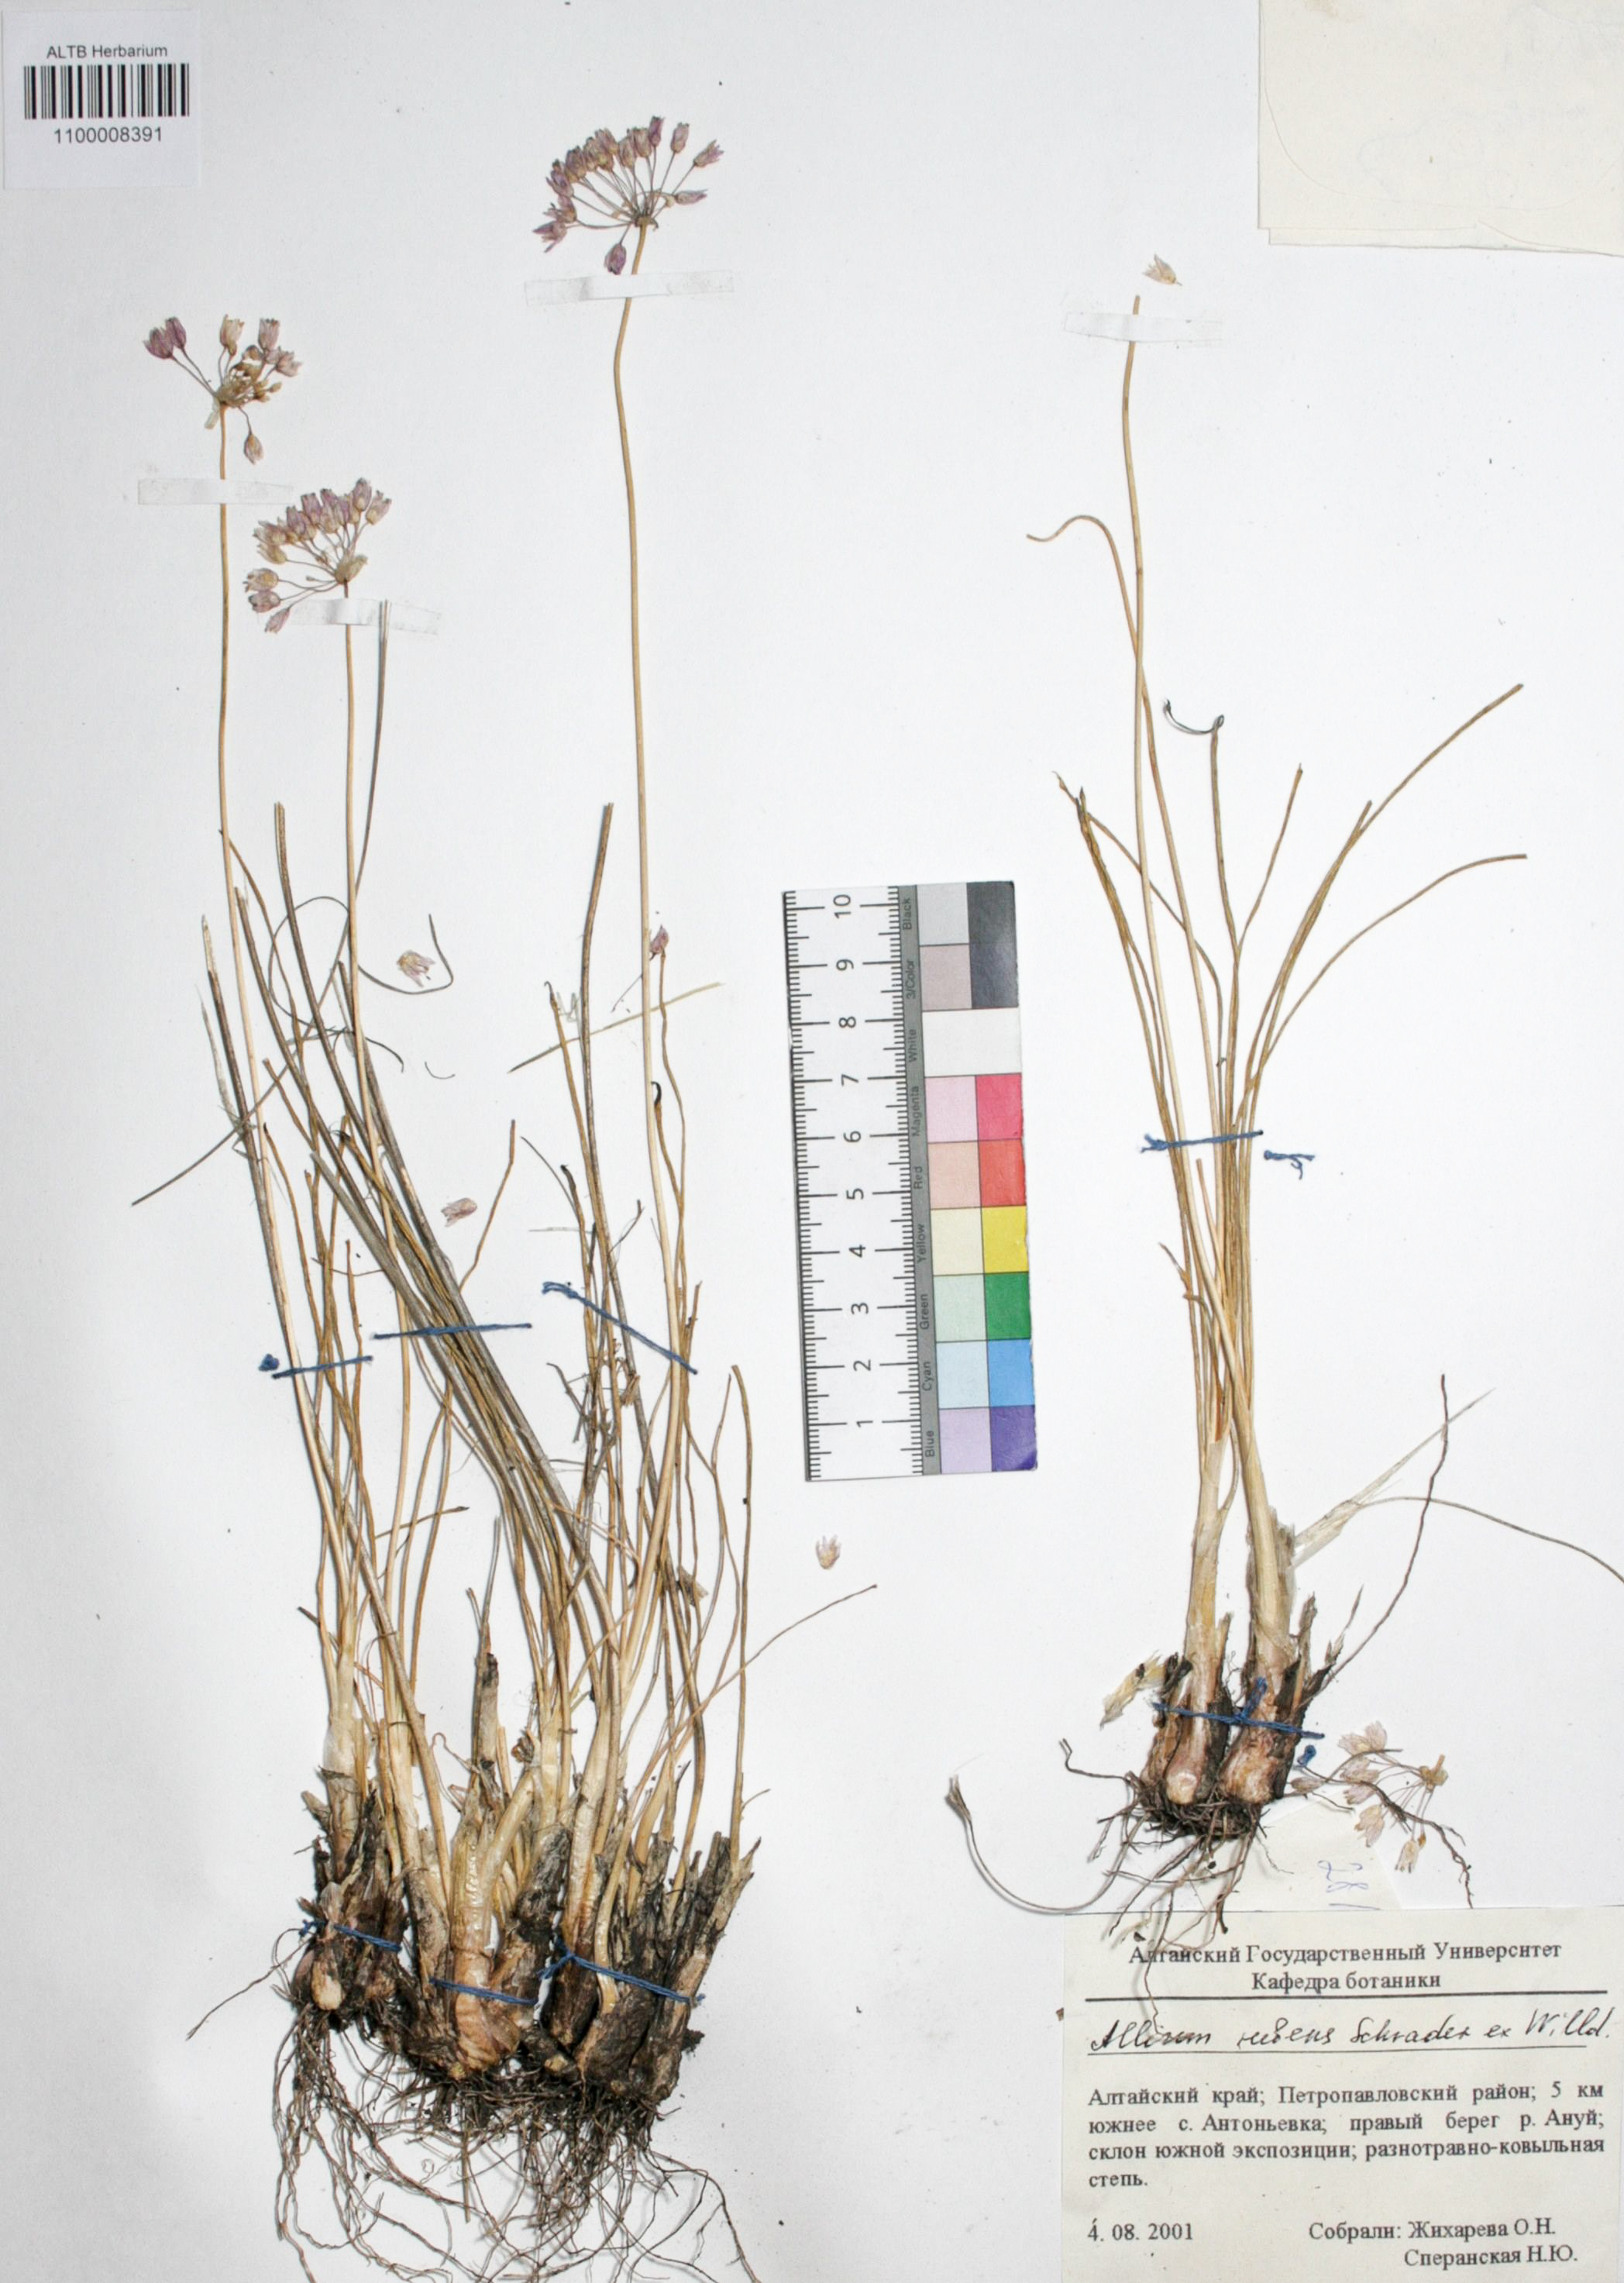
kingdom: Plantae
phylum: Tracheophyta
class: Liliopsida
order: Asparagales
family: Amaryllidaceae
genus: Allium
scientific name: Allium rubens
